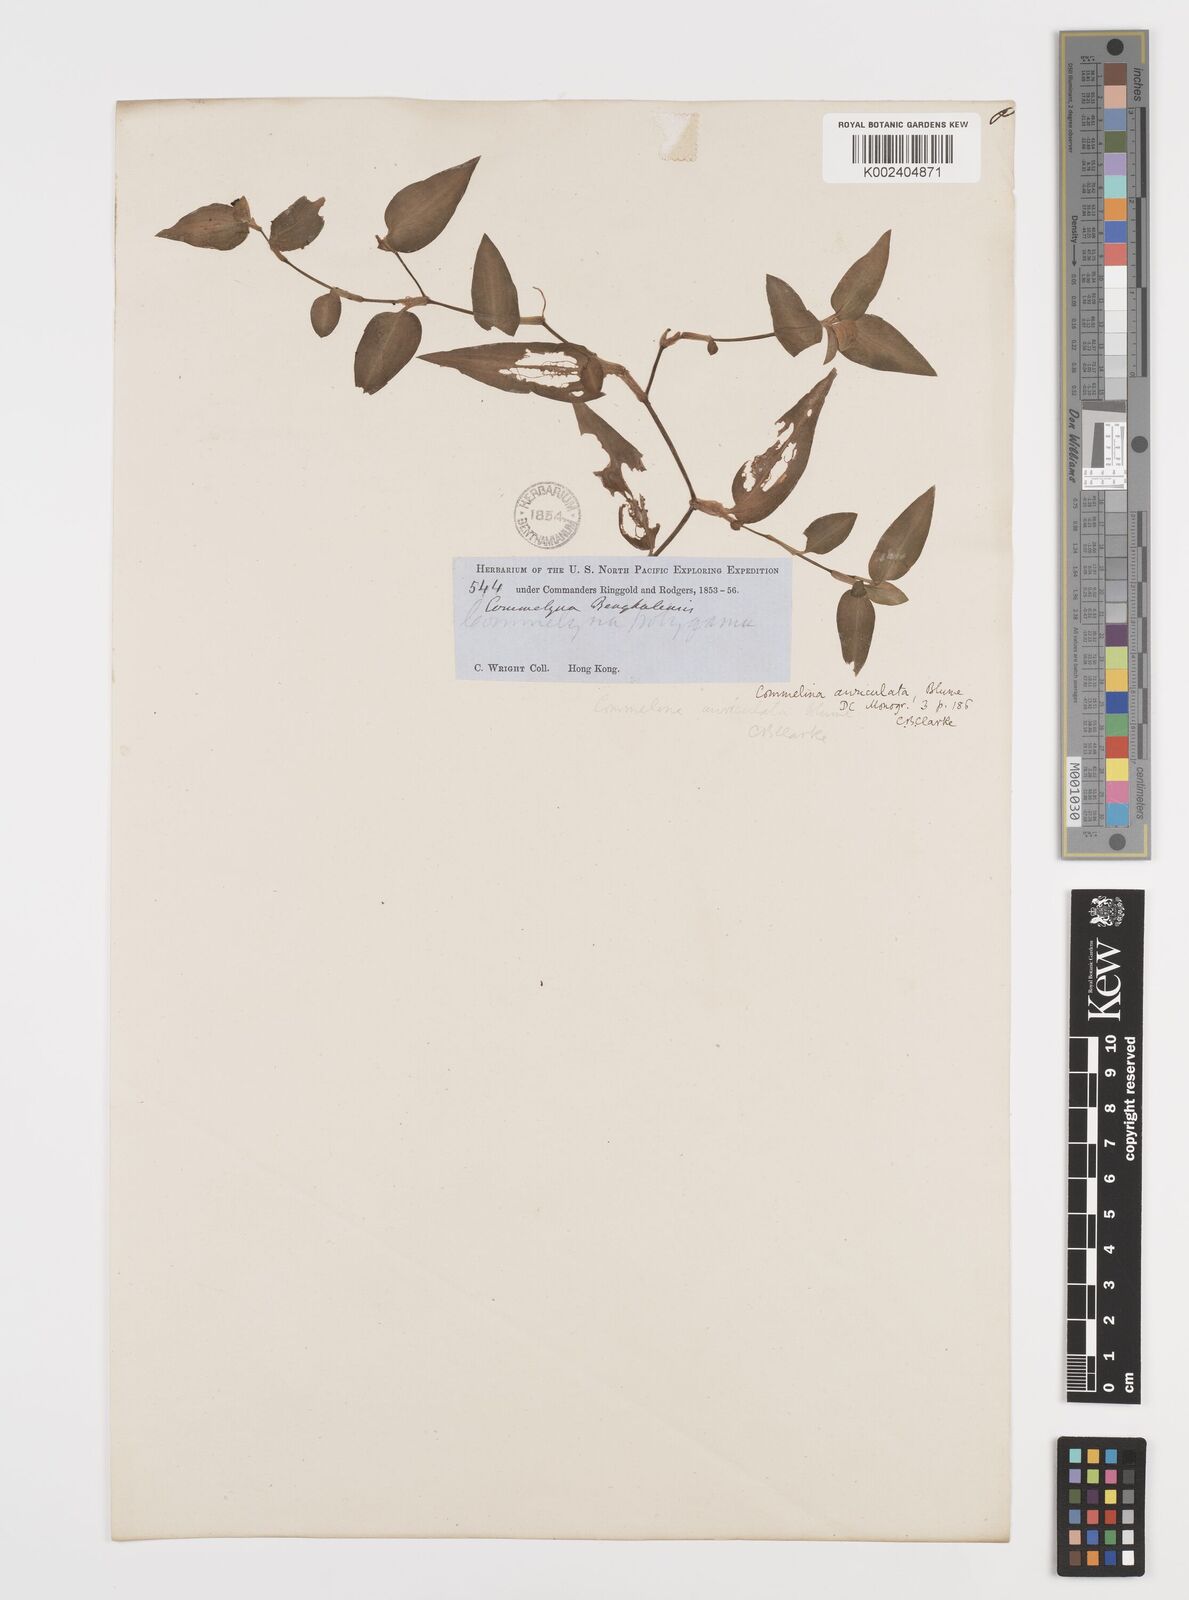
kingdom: Plantae
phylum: Tracheophyta
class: Liliopsida
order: Commelinales
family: Commelinaceae
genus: Commelina
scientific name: Commelina auriculata
